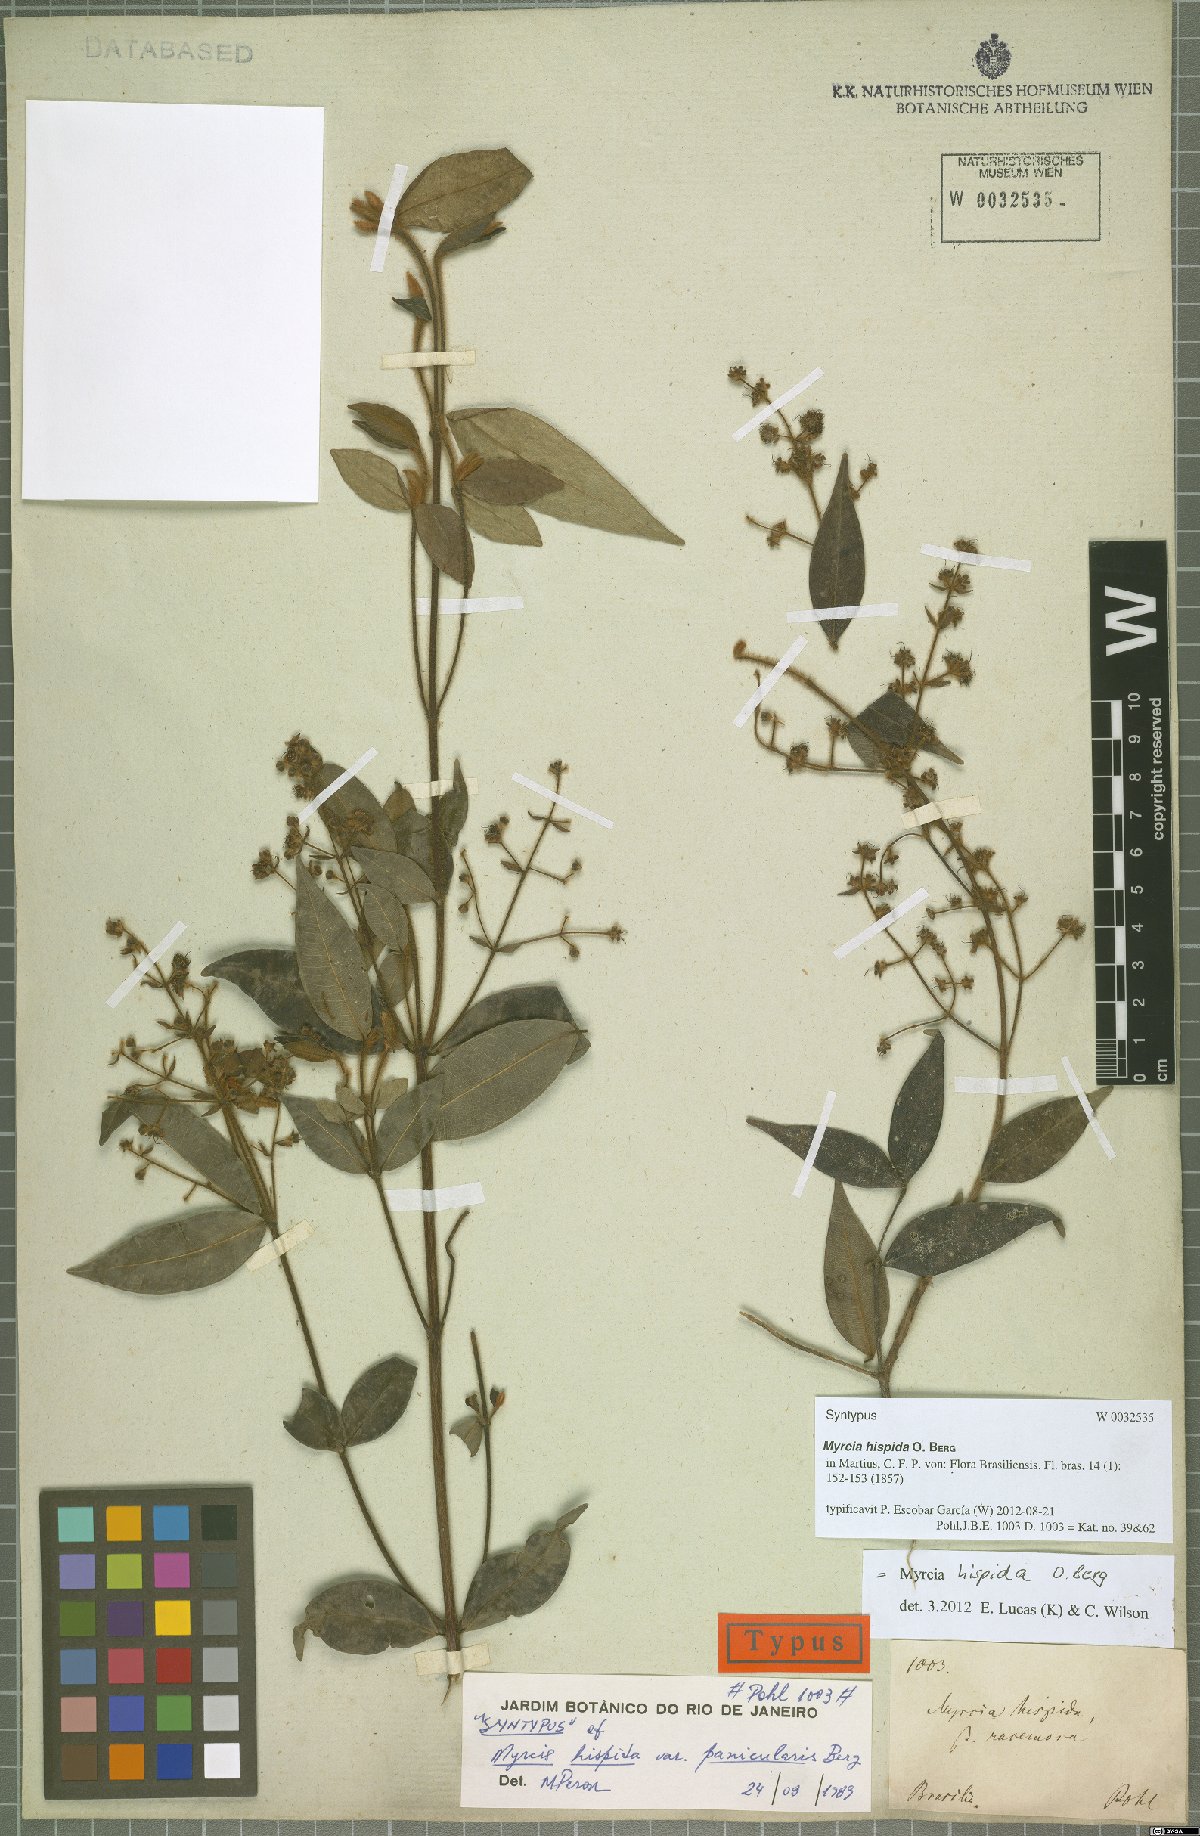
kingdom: Plantae
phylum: Tracheophyta
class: Magnoliopsida
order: Myrtales
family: Myrtaceae
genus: Myrcia
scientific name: Myrcia hispida
